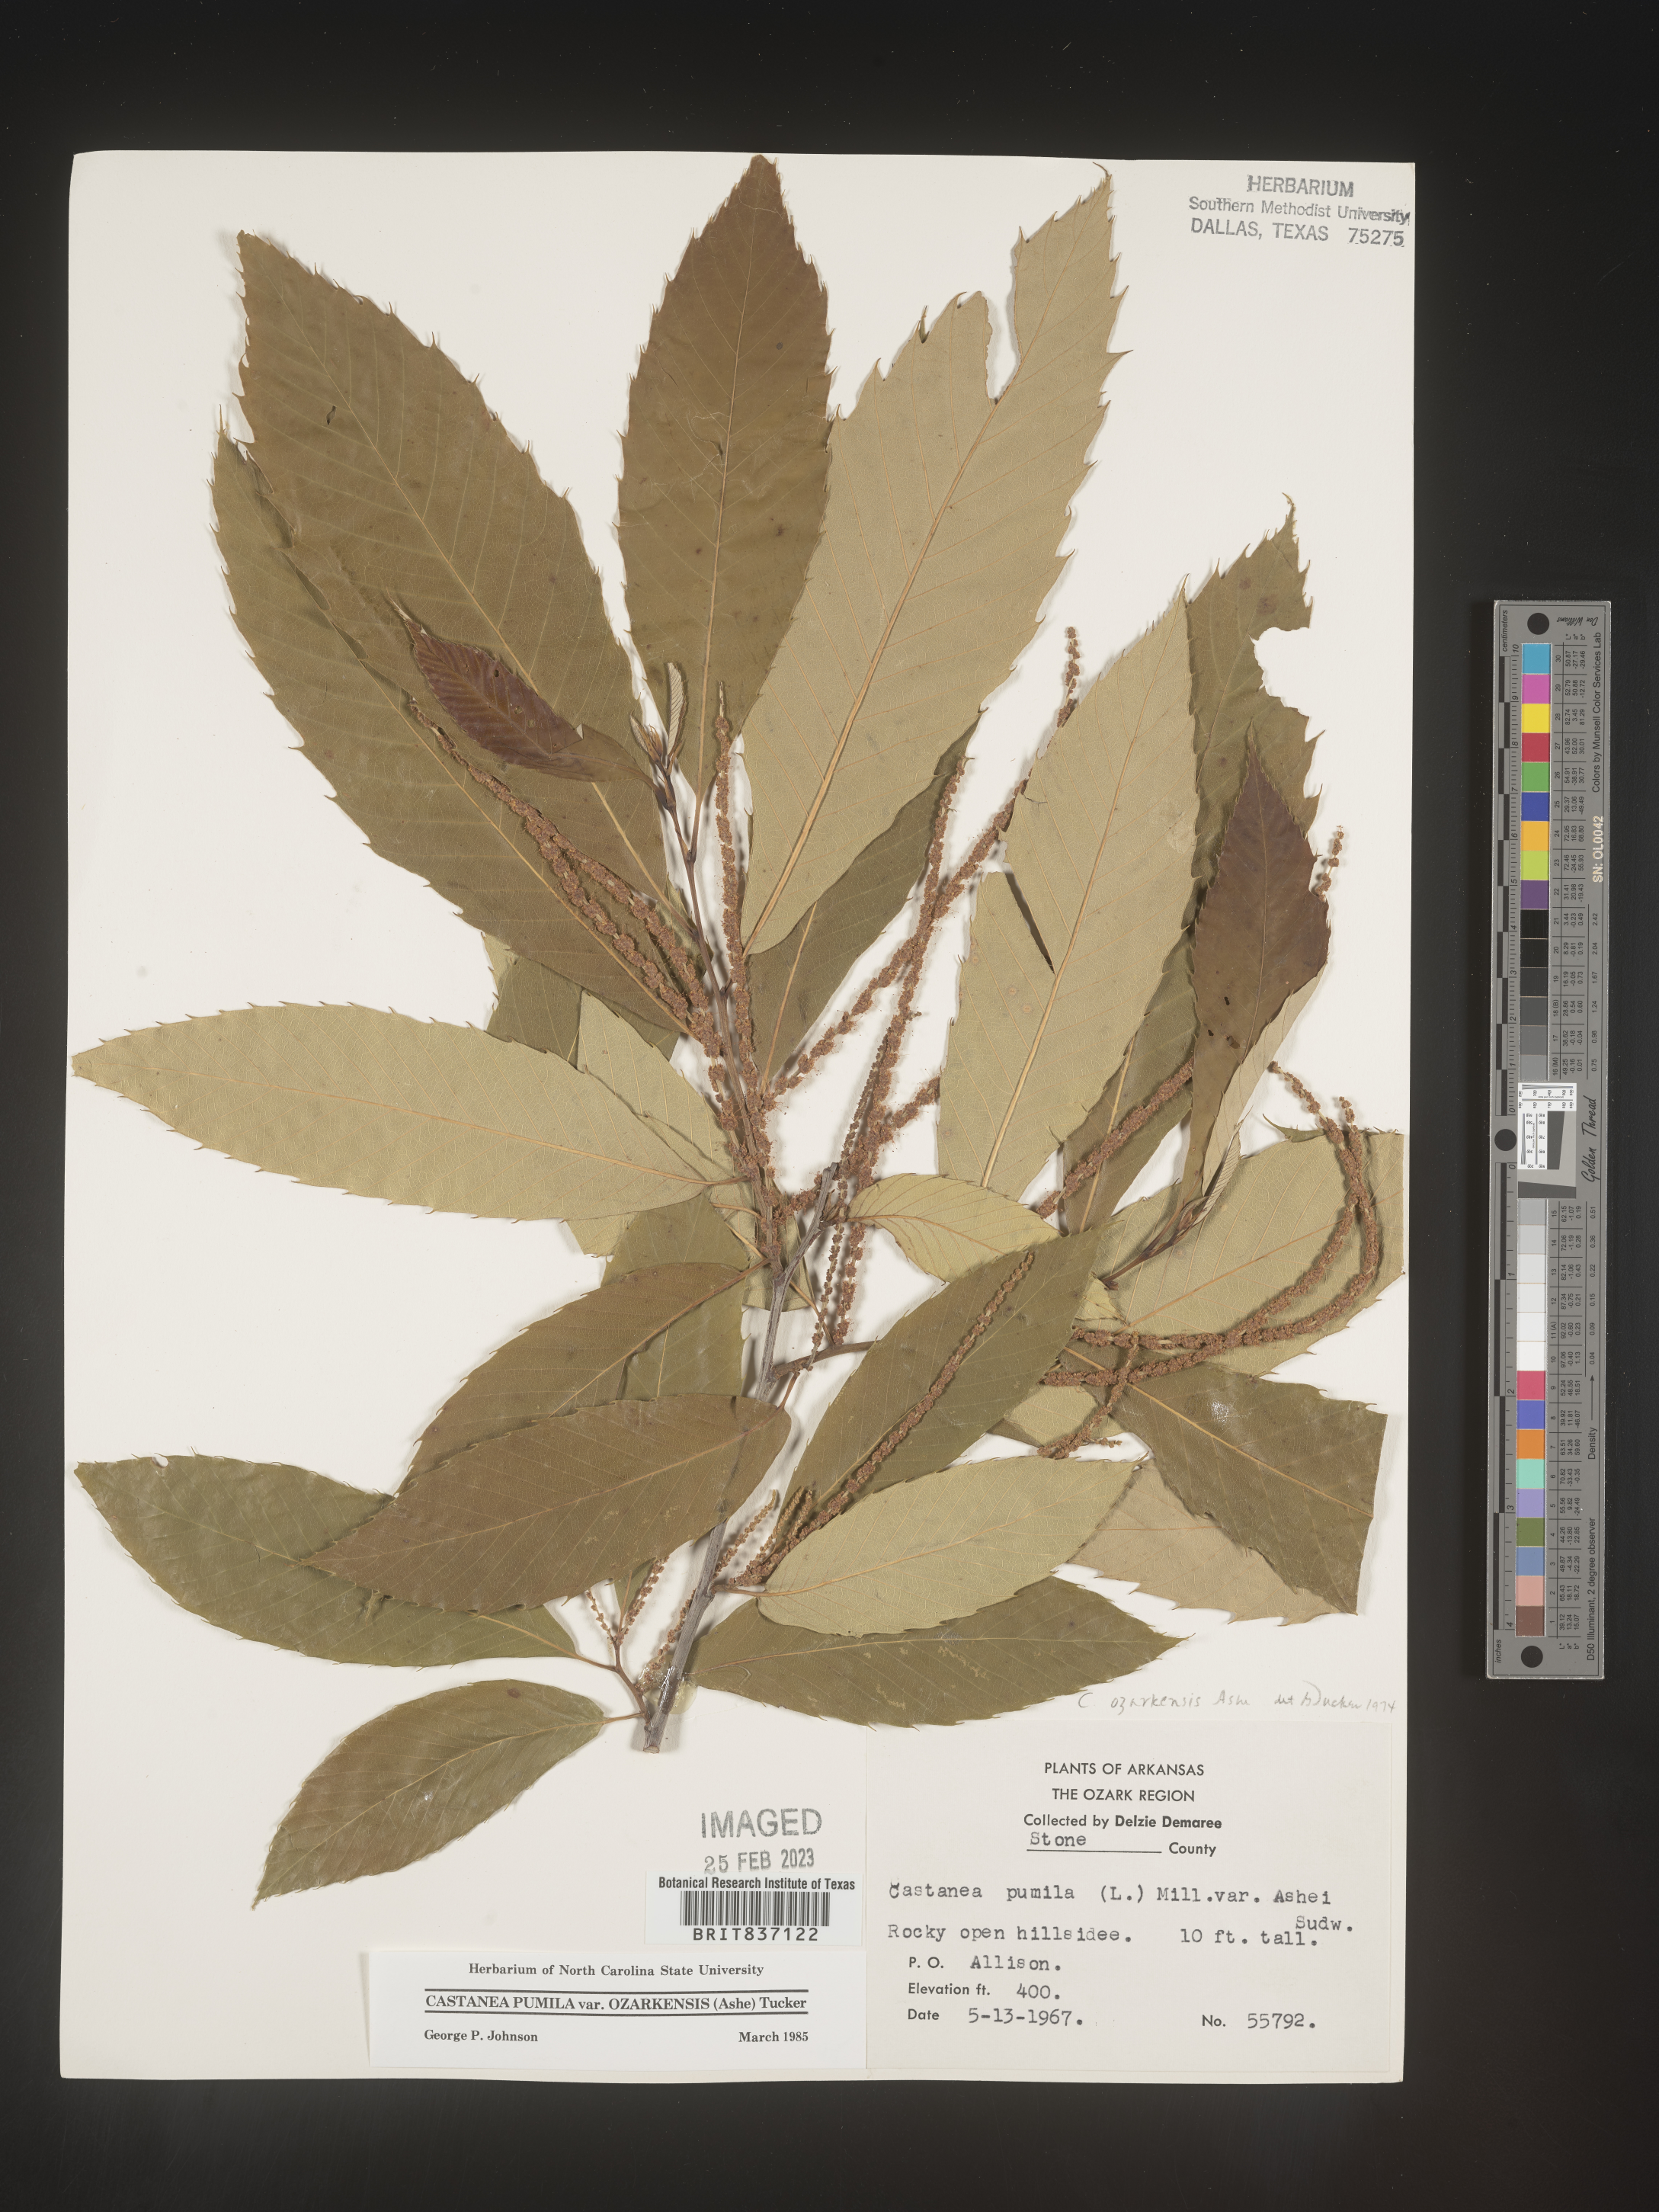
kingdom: Plantae
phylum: Tracheophyta
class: Magnoliopsida
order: Fagales
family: Fagaceae
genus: Castanea
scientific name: Castanea pumila
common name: Chinkapin
